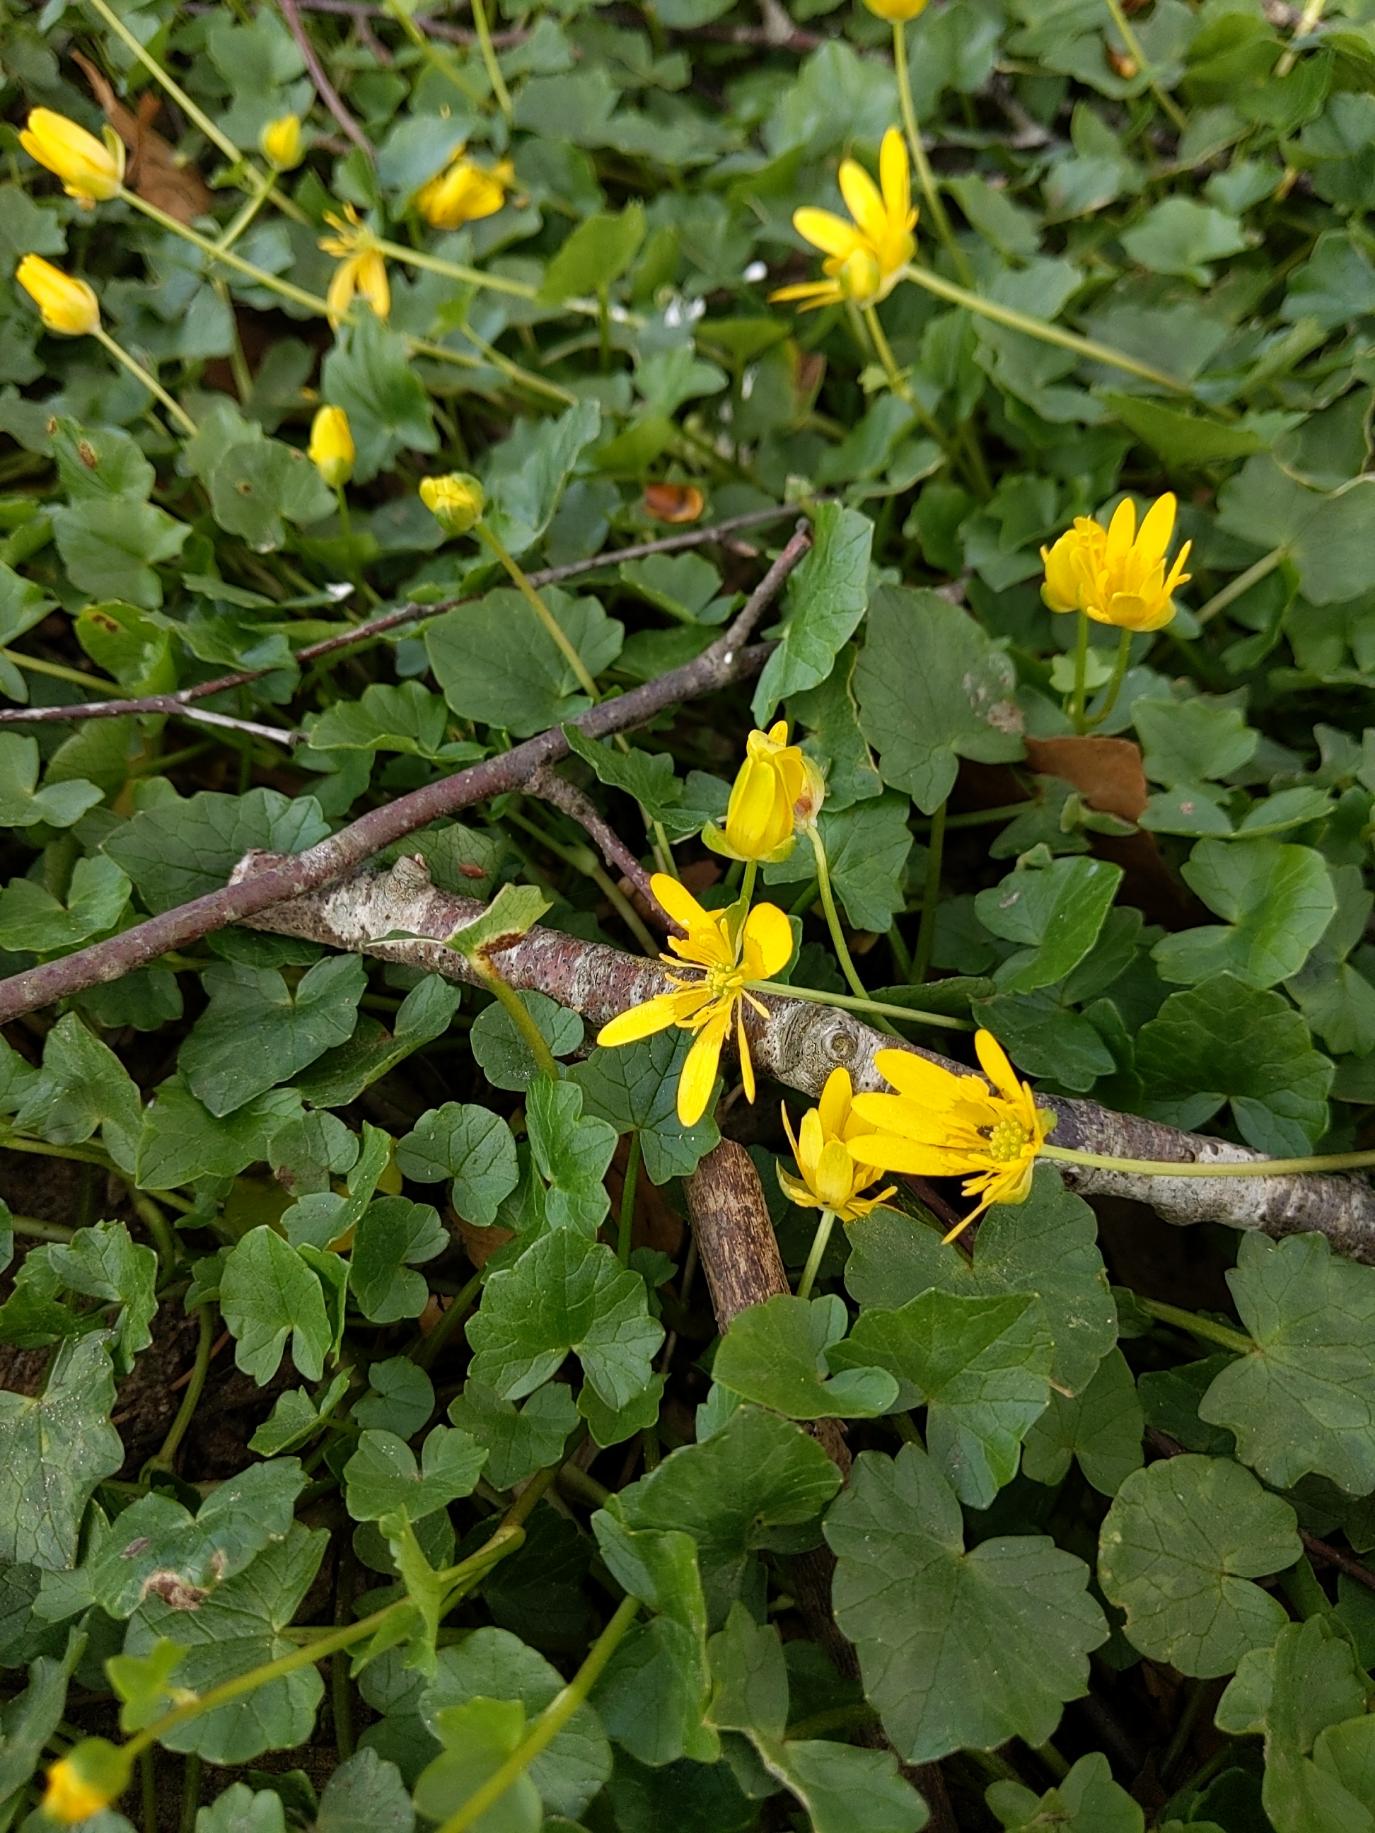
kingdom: Plantae
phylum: Tracheophyta
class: Magnoliopsida
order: Ranunculales
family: Ranunculaceae
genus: Ficaria
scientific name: Ficaria verna
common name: Vorterod
